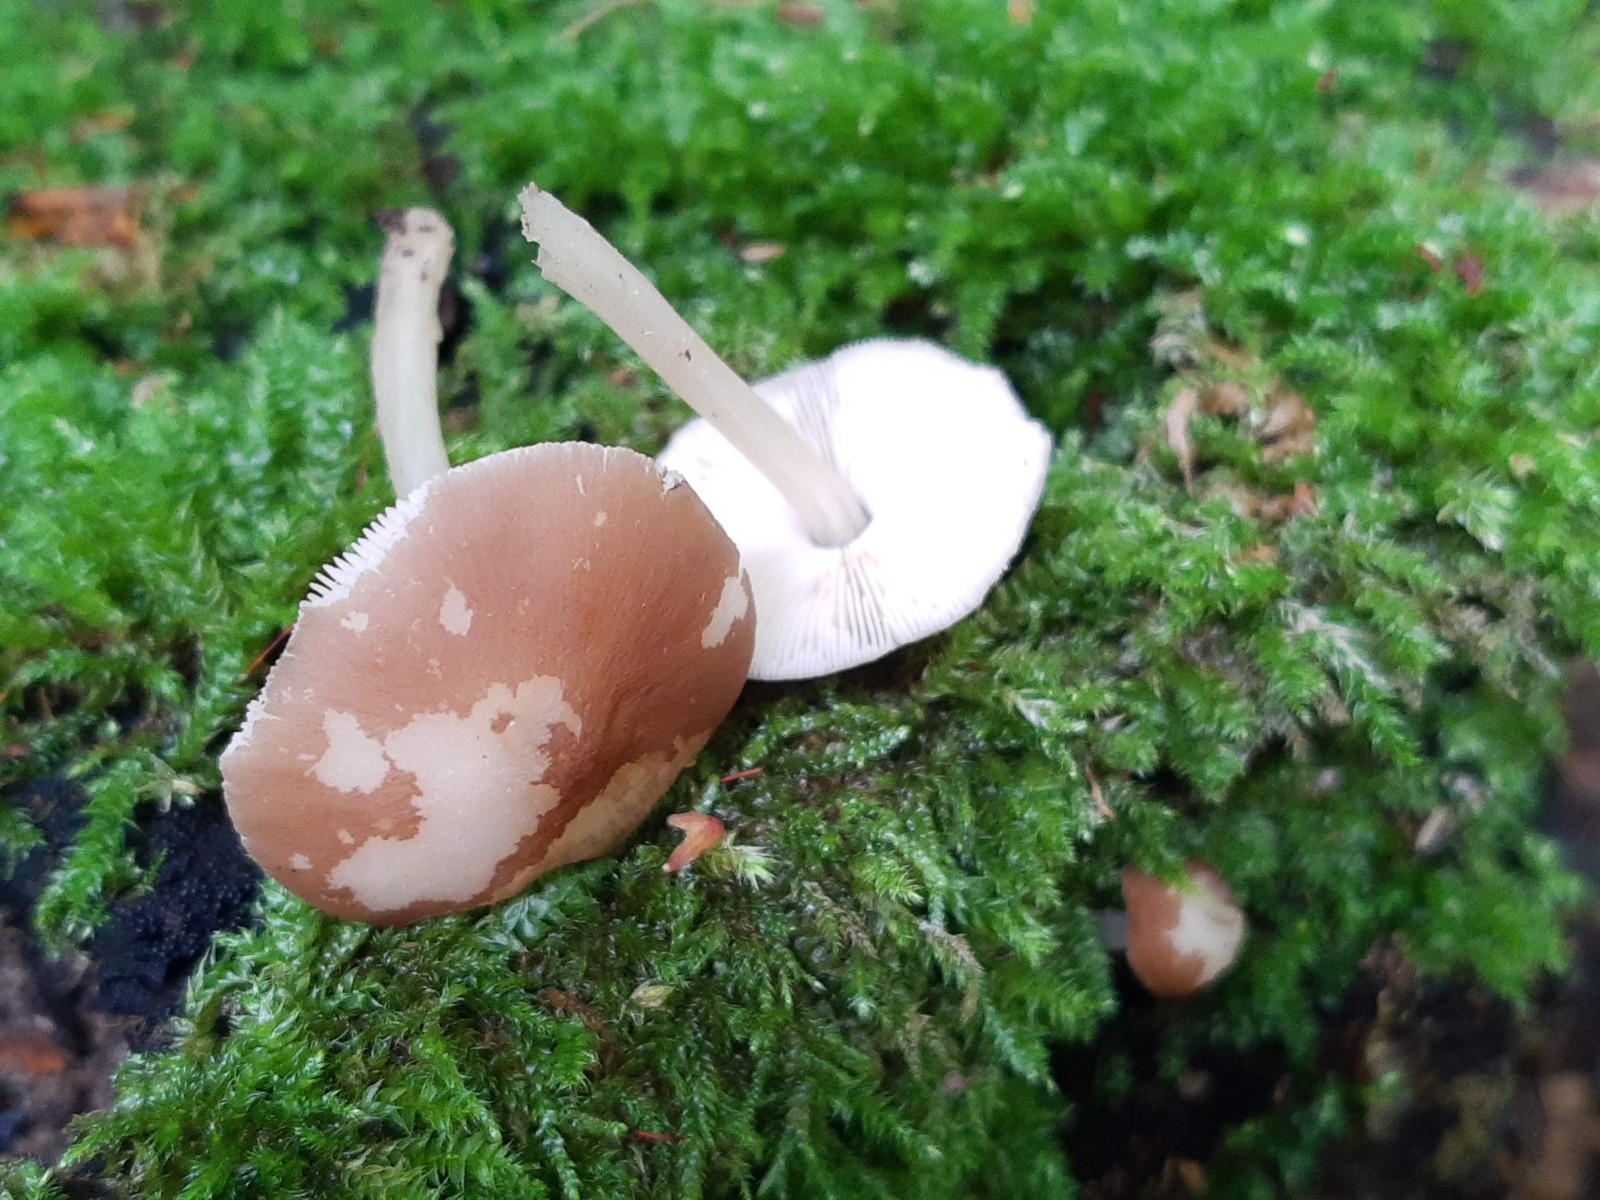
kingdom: Fungi
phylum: Basidiomycota
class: Agaricomycetes
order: Agaricales
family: Pluteaceae
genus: Pluteus
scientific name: Pluteus phlebophorus
